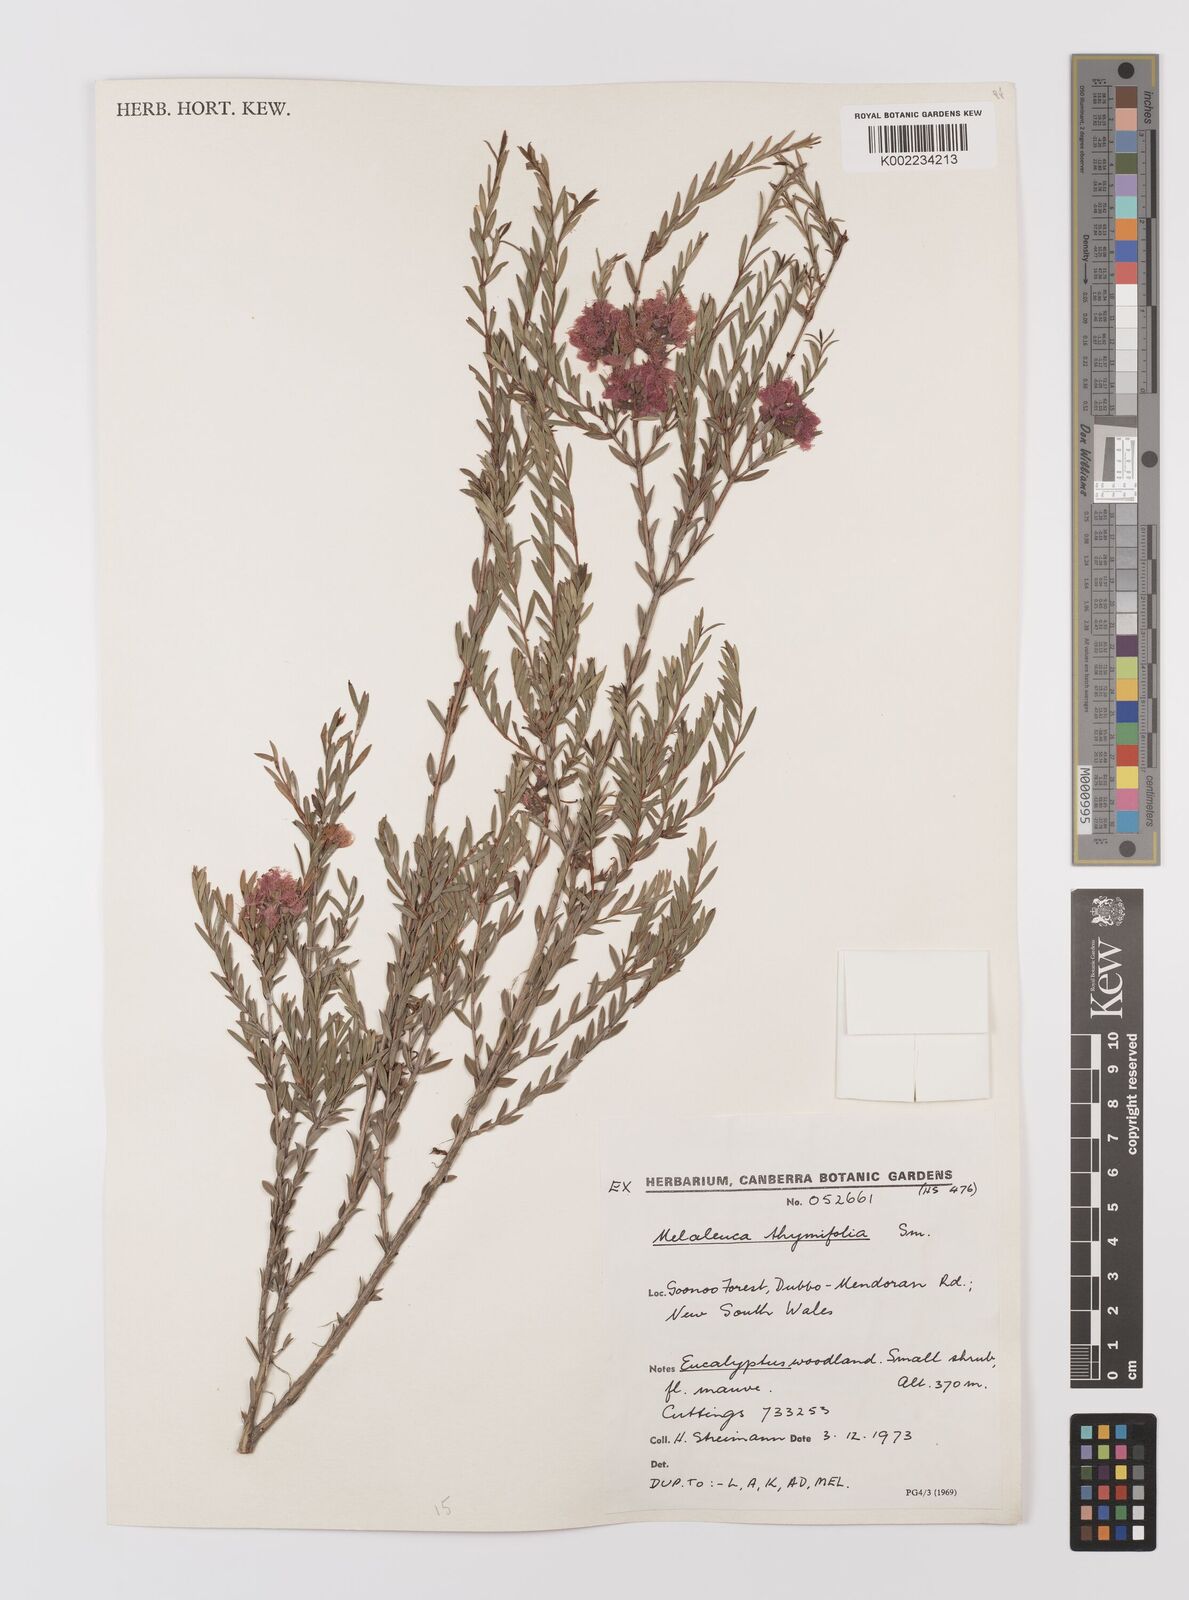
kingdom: Plantae
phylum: Tracheophyta
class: Magnoliopsida
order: Myrtales
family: Myrtaceae
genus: Melaleuca
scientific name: Melaleuca thymifolia
